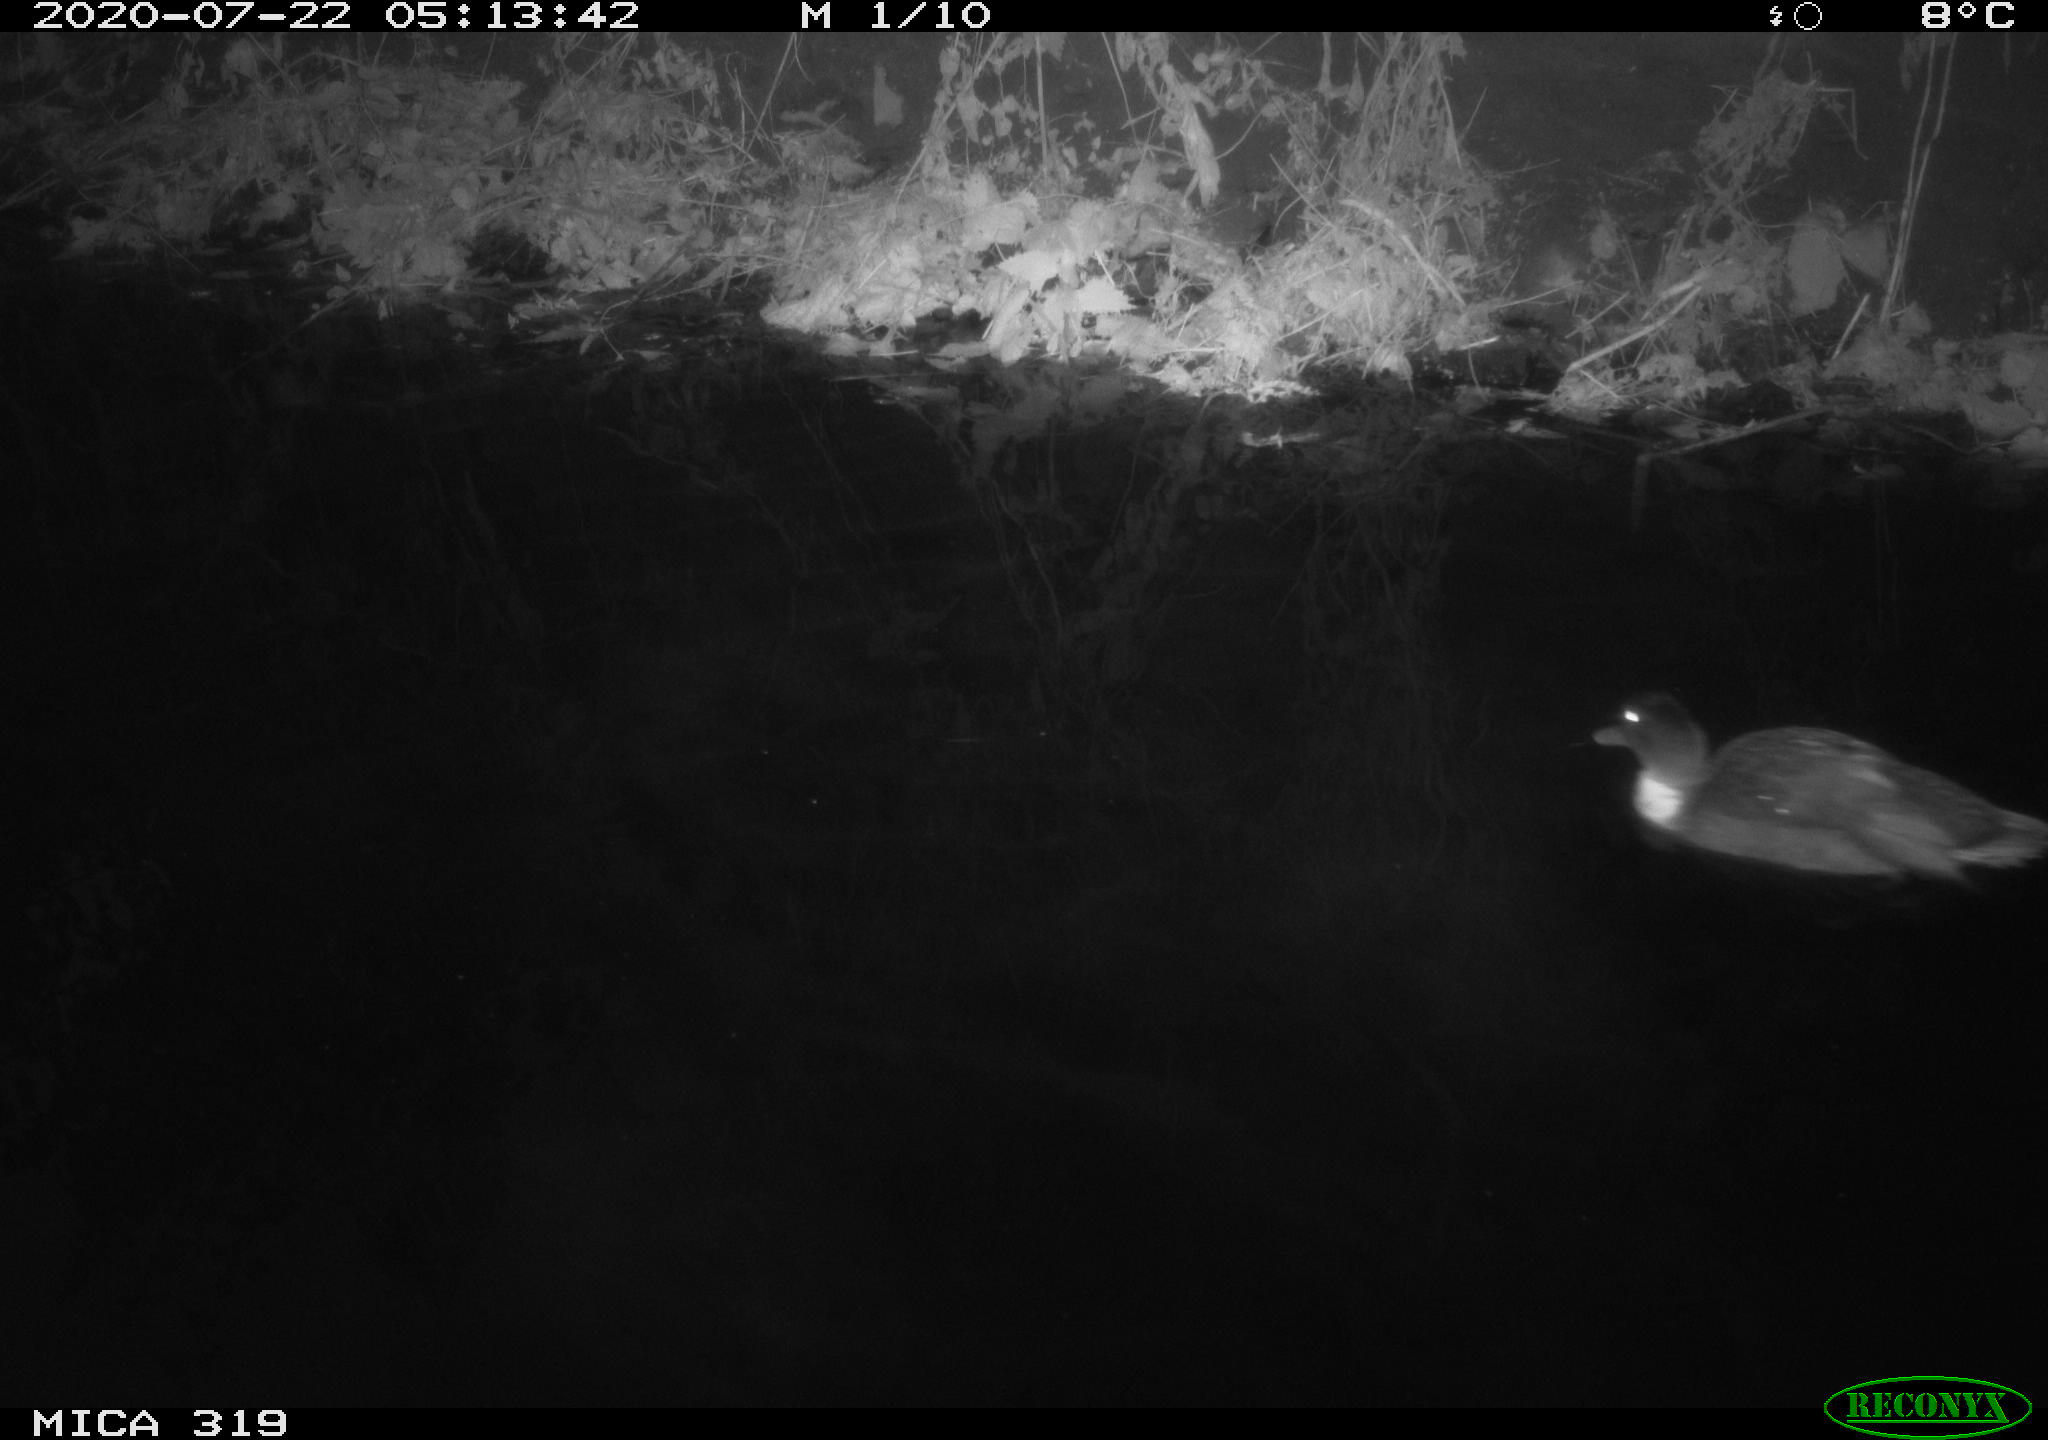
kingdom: Animalia
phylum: Chordata
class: Aves
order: Anseriformes
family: Anatidae
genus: Anas
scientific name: Anas platyrhynchos
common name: Mallard
